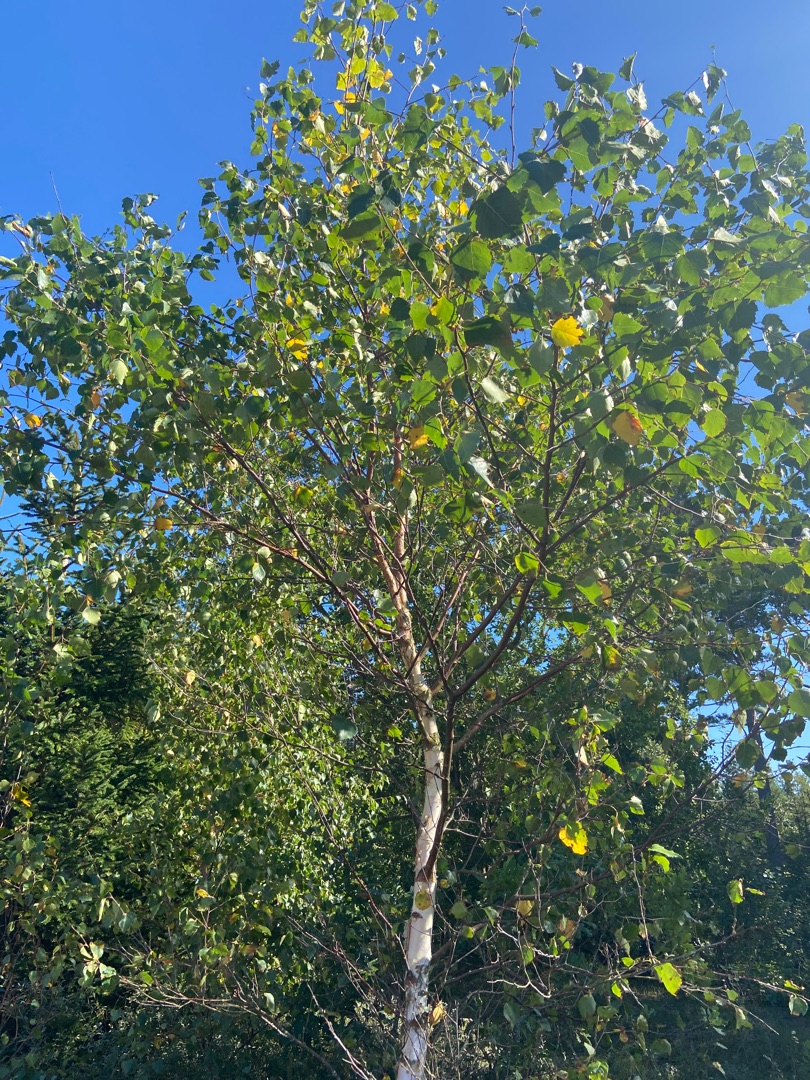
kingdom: Plantae
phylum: Tracheophyta
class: Magnoliopsida
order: Fagales
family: Betulaceae
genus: Betula
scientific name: Betula pendula
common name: Vorte-birk
